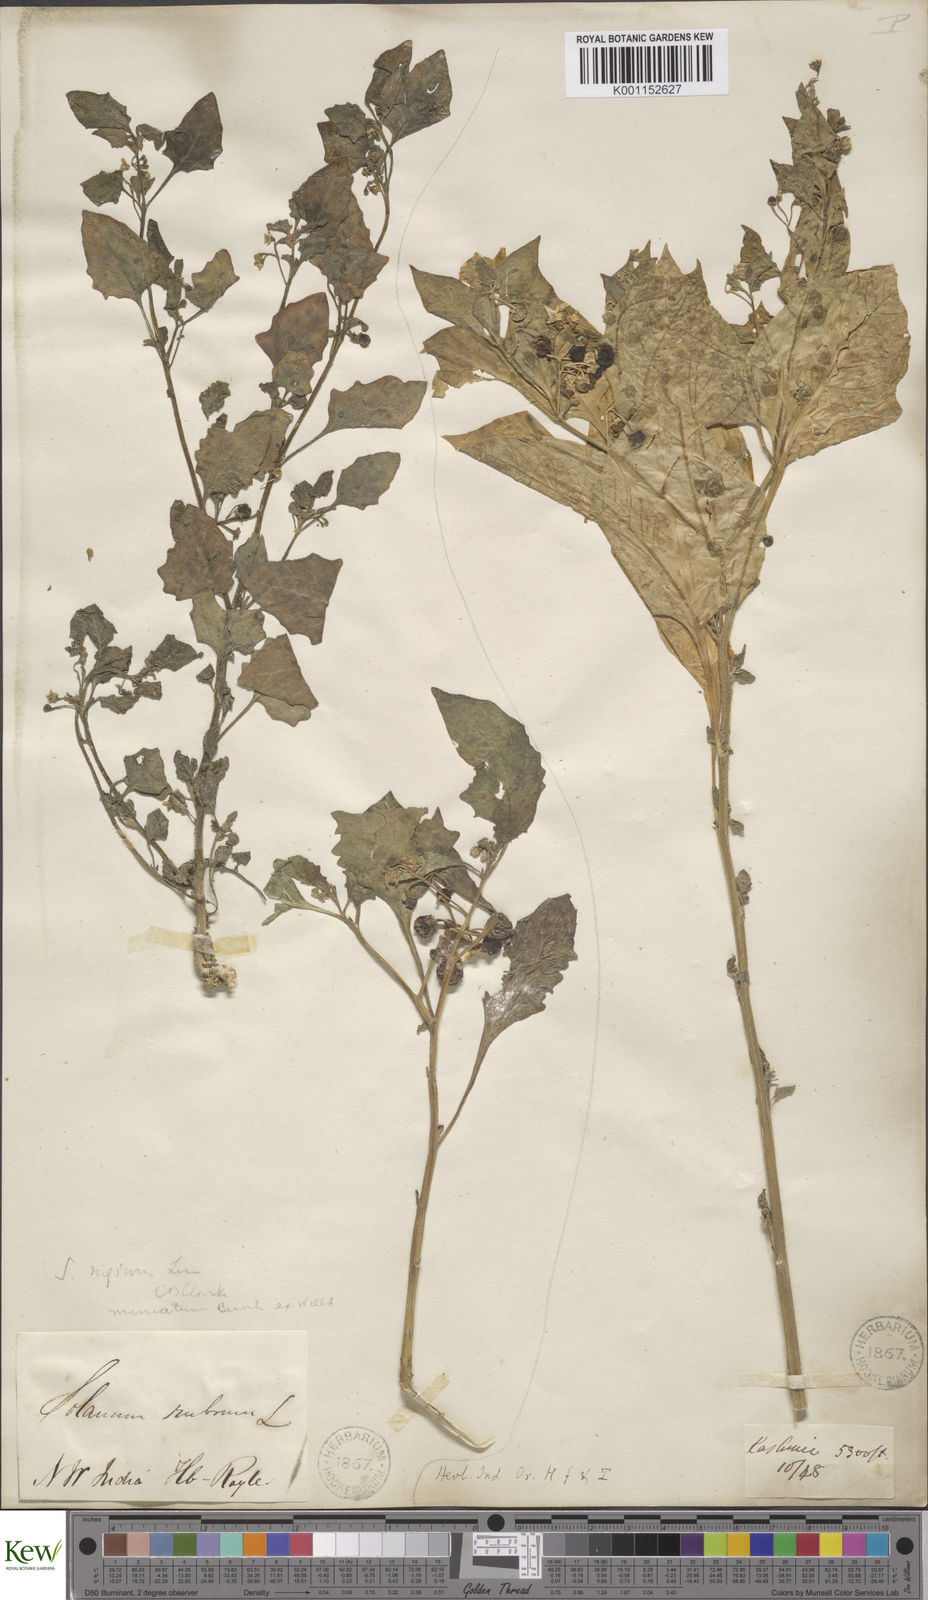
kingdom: Plantae
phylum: Tracheophyta
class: Magnoliopsida
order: Solanales
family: Solanaceae
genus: Solanum
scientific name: Solanum nigrum
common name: Black nightshade
